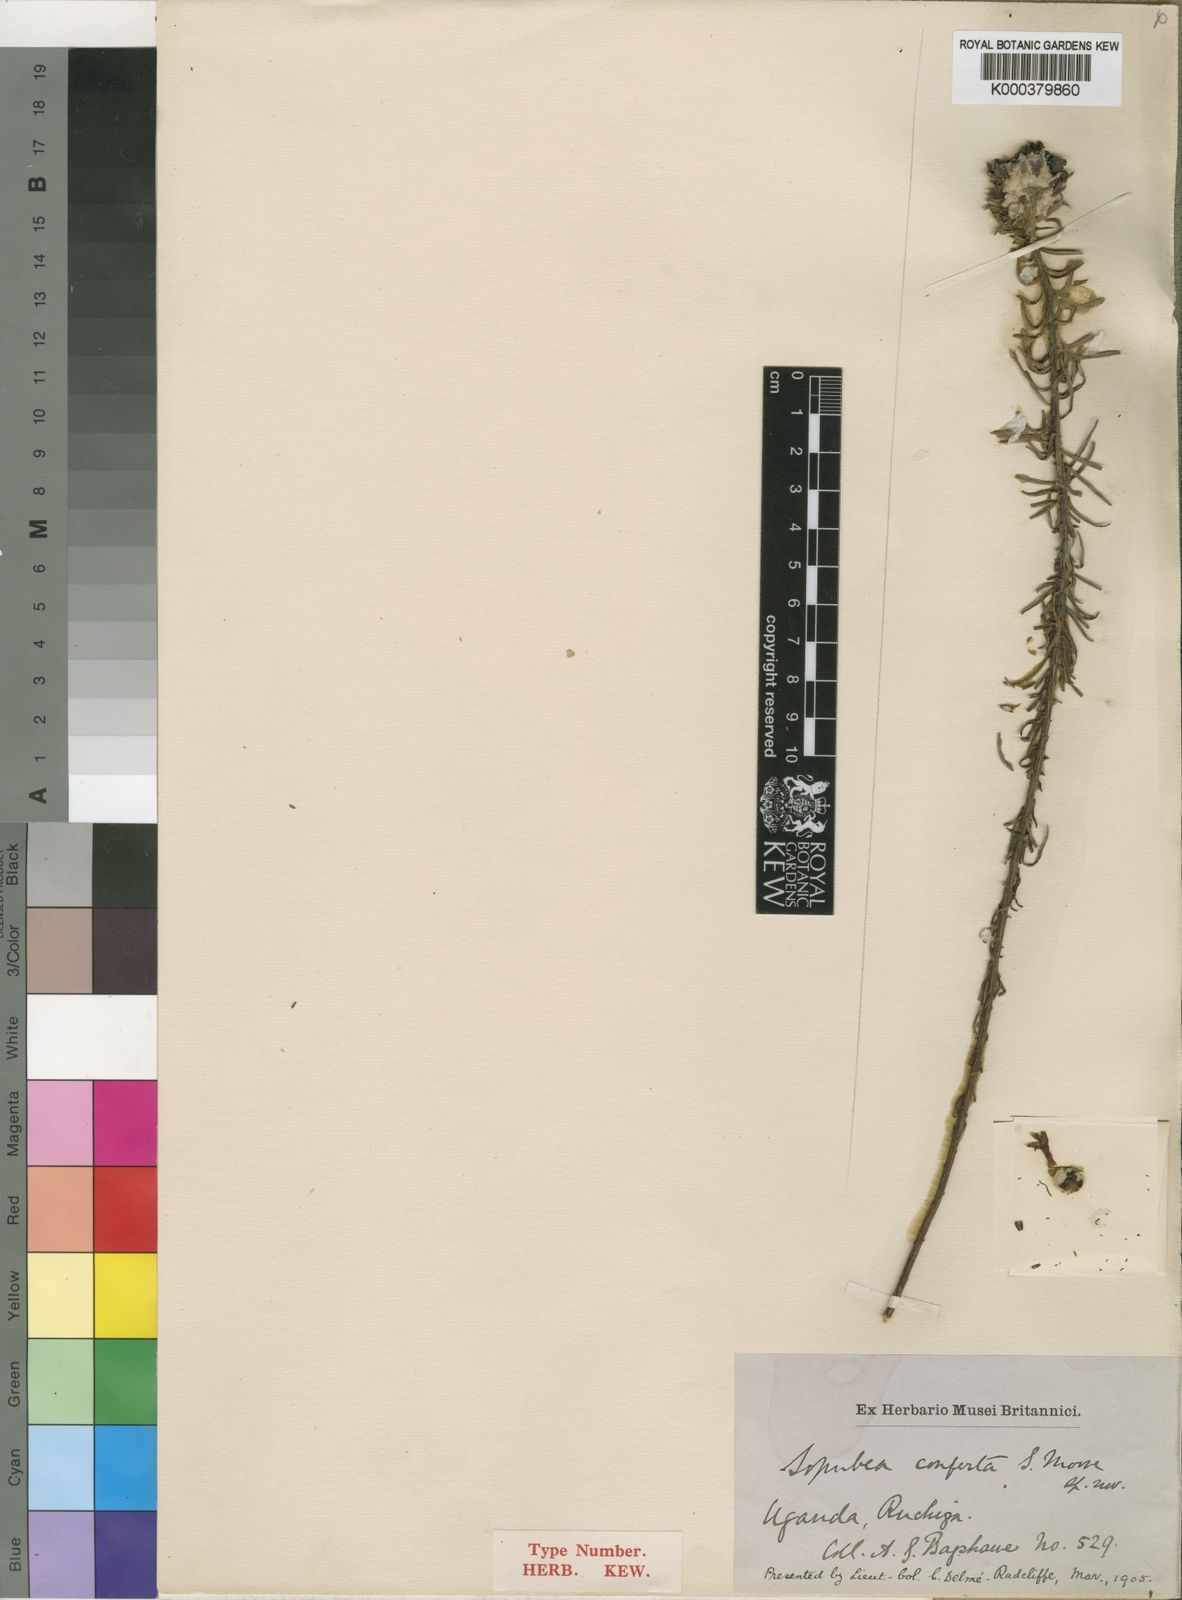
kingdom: Plantae
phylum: Tracheophyta
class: Magnoliopsida
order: Lamiales
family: Orobanchaceae
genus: Sopubia
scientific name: Sopubia conferta
